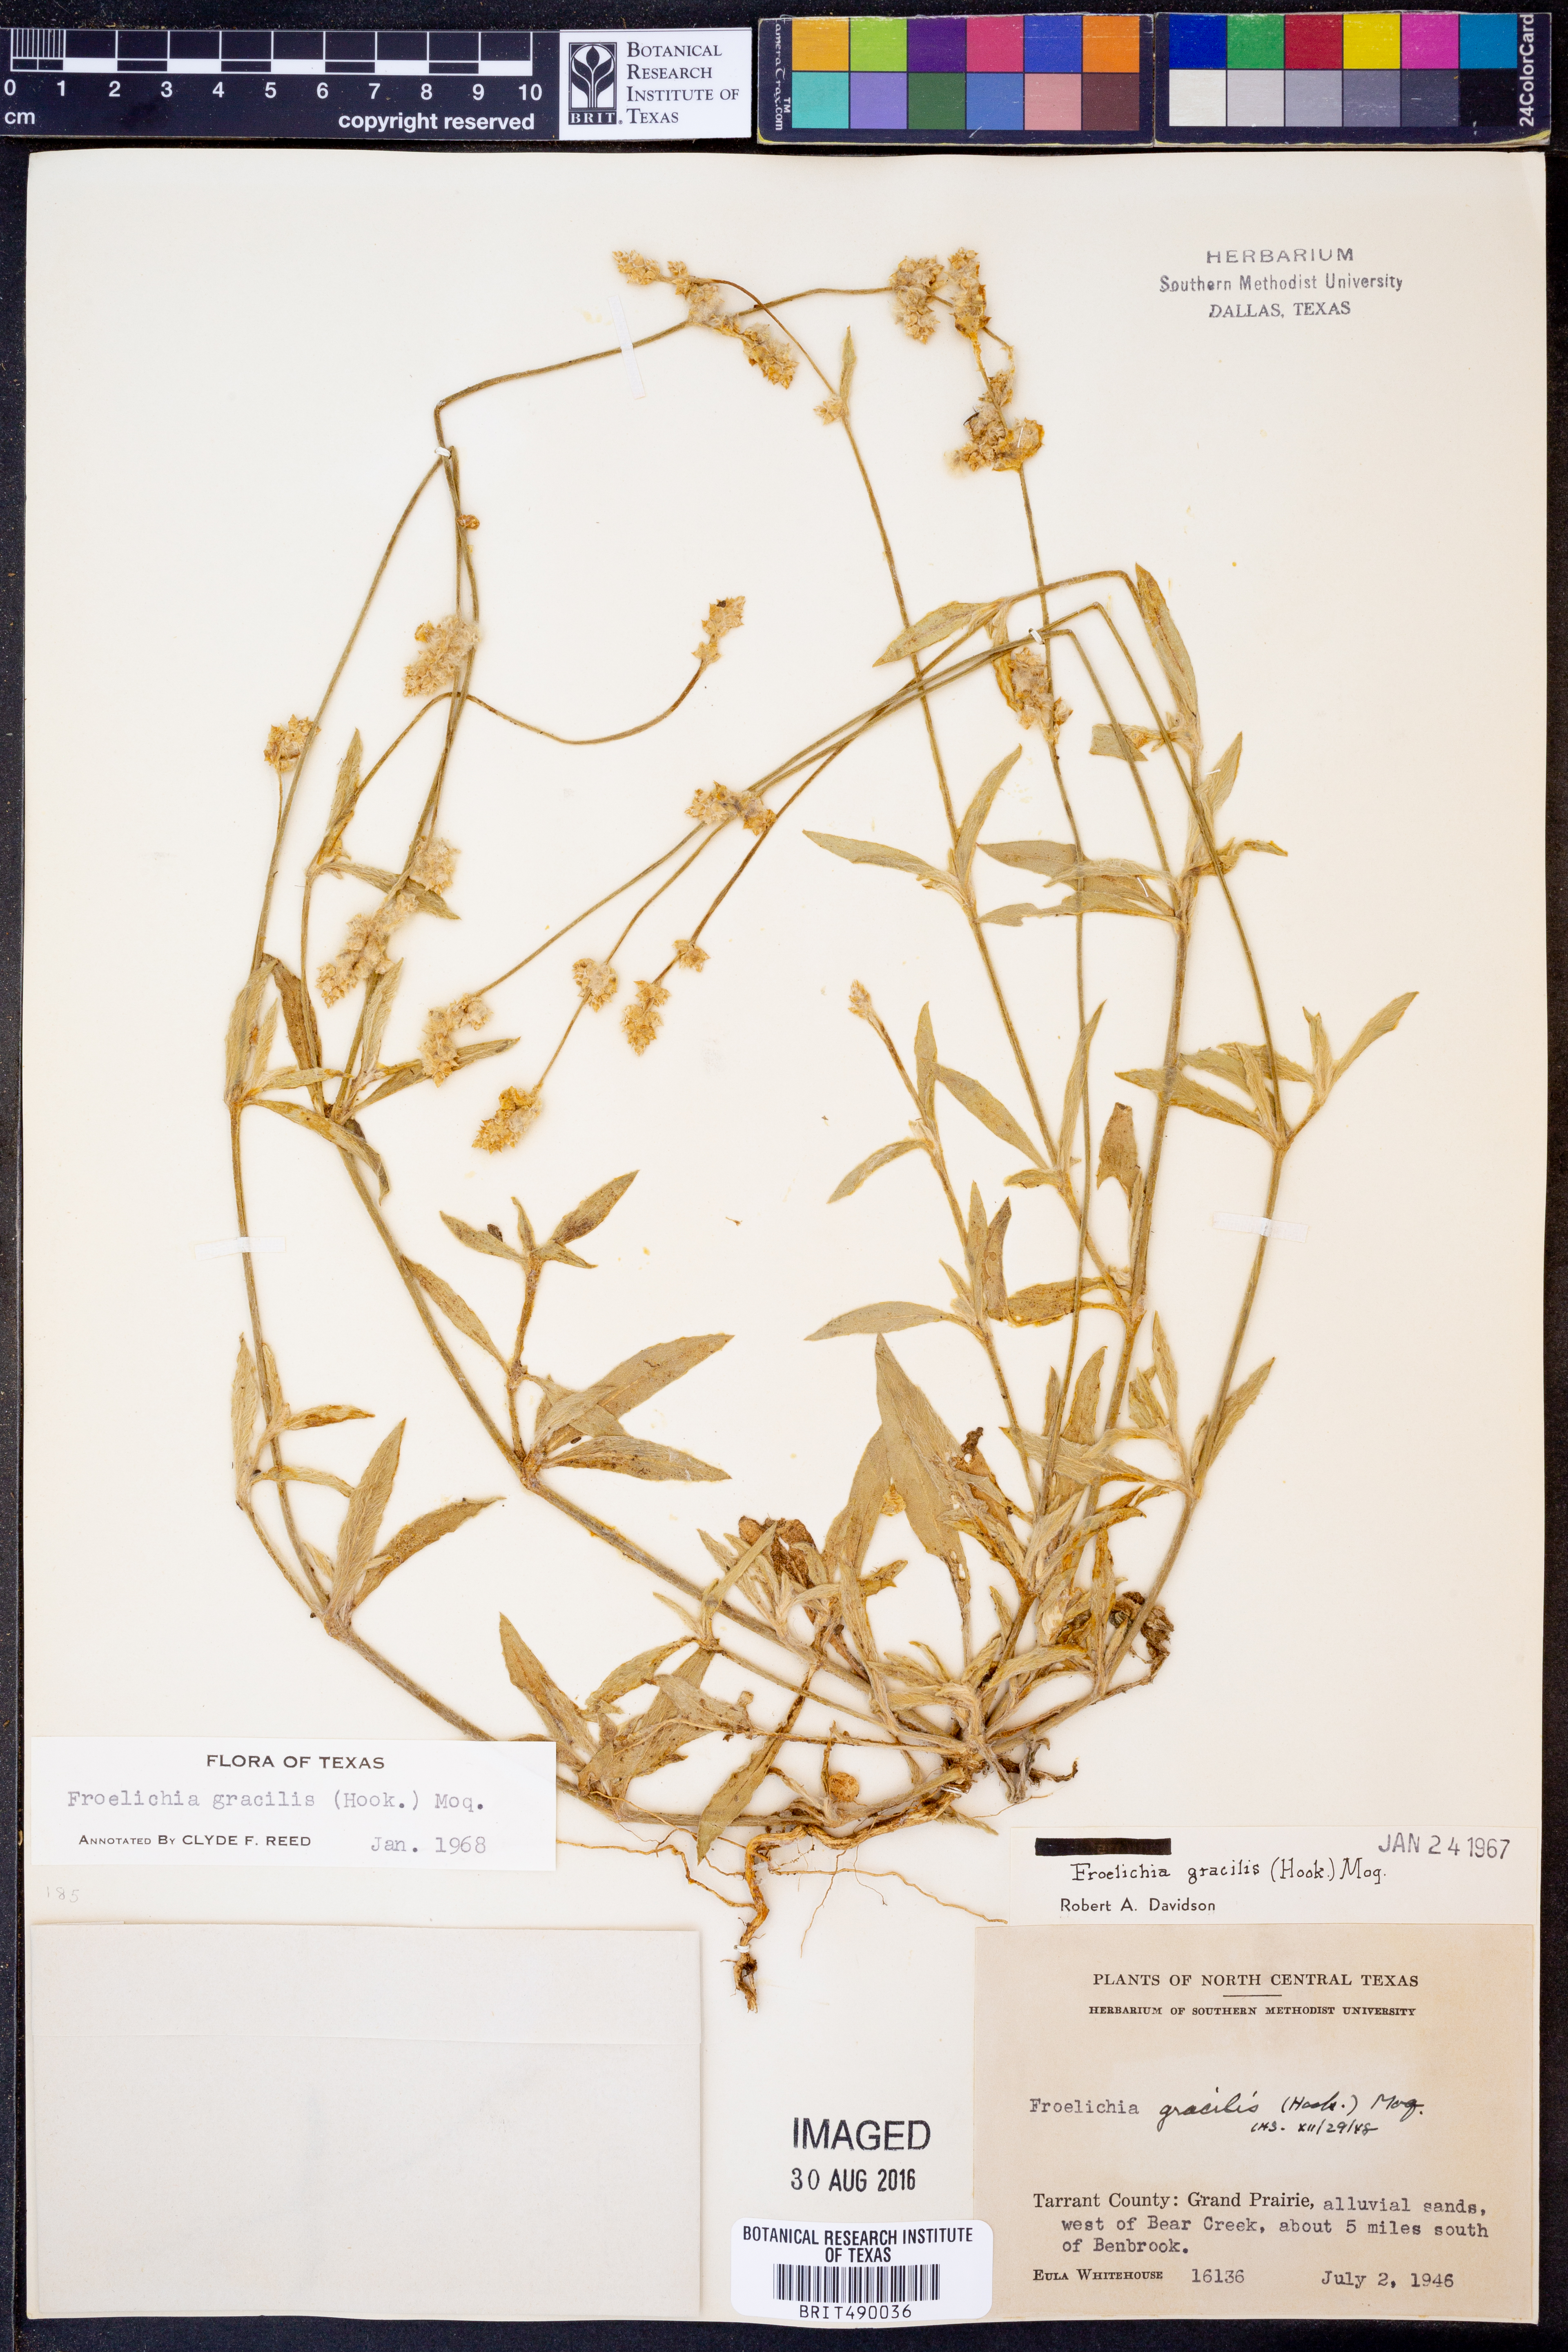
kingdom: Plantae
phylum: Tracheophyta
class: Magnoliopsida
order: Caryophyllales
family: Amaranthaceae
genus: Froelichia
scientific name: Froelichia gracilis
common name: Slender cottonweed
